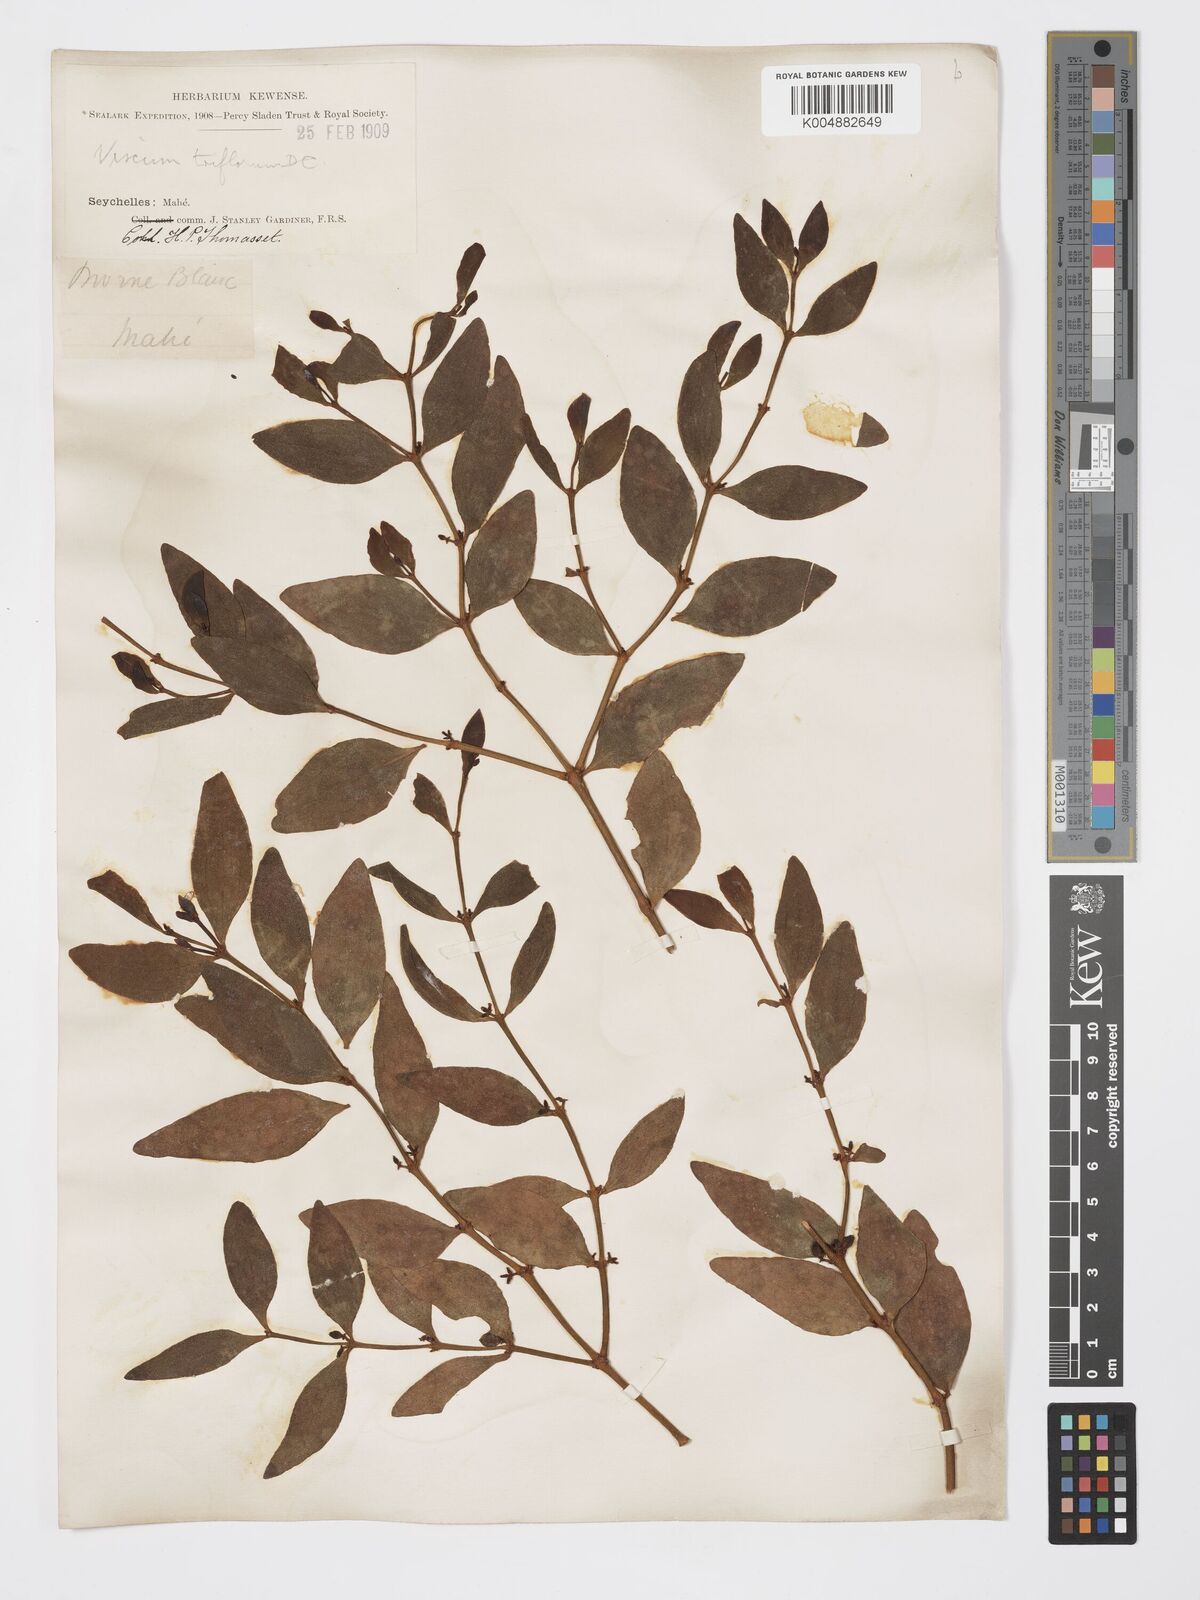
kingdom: Plantae
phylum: Tracheophyta
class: Magnoliopsida
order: Santalales
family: Viscaceae
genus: Viscum
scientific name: Viscum triflorum
